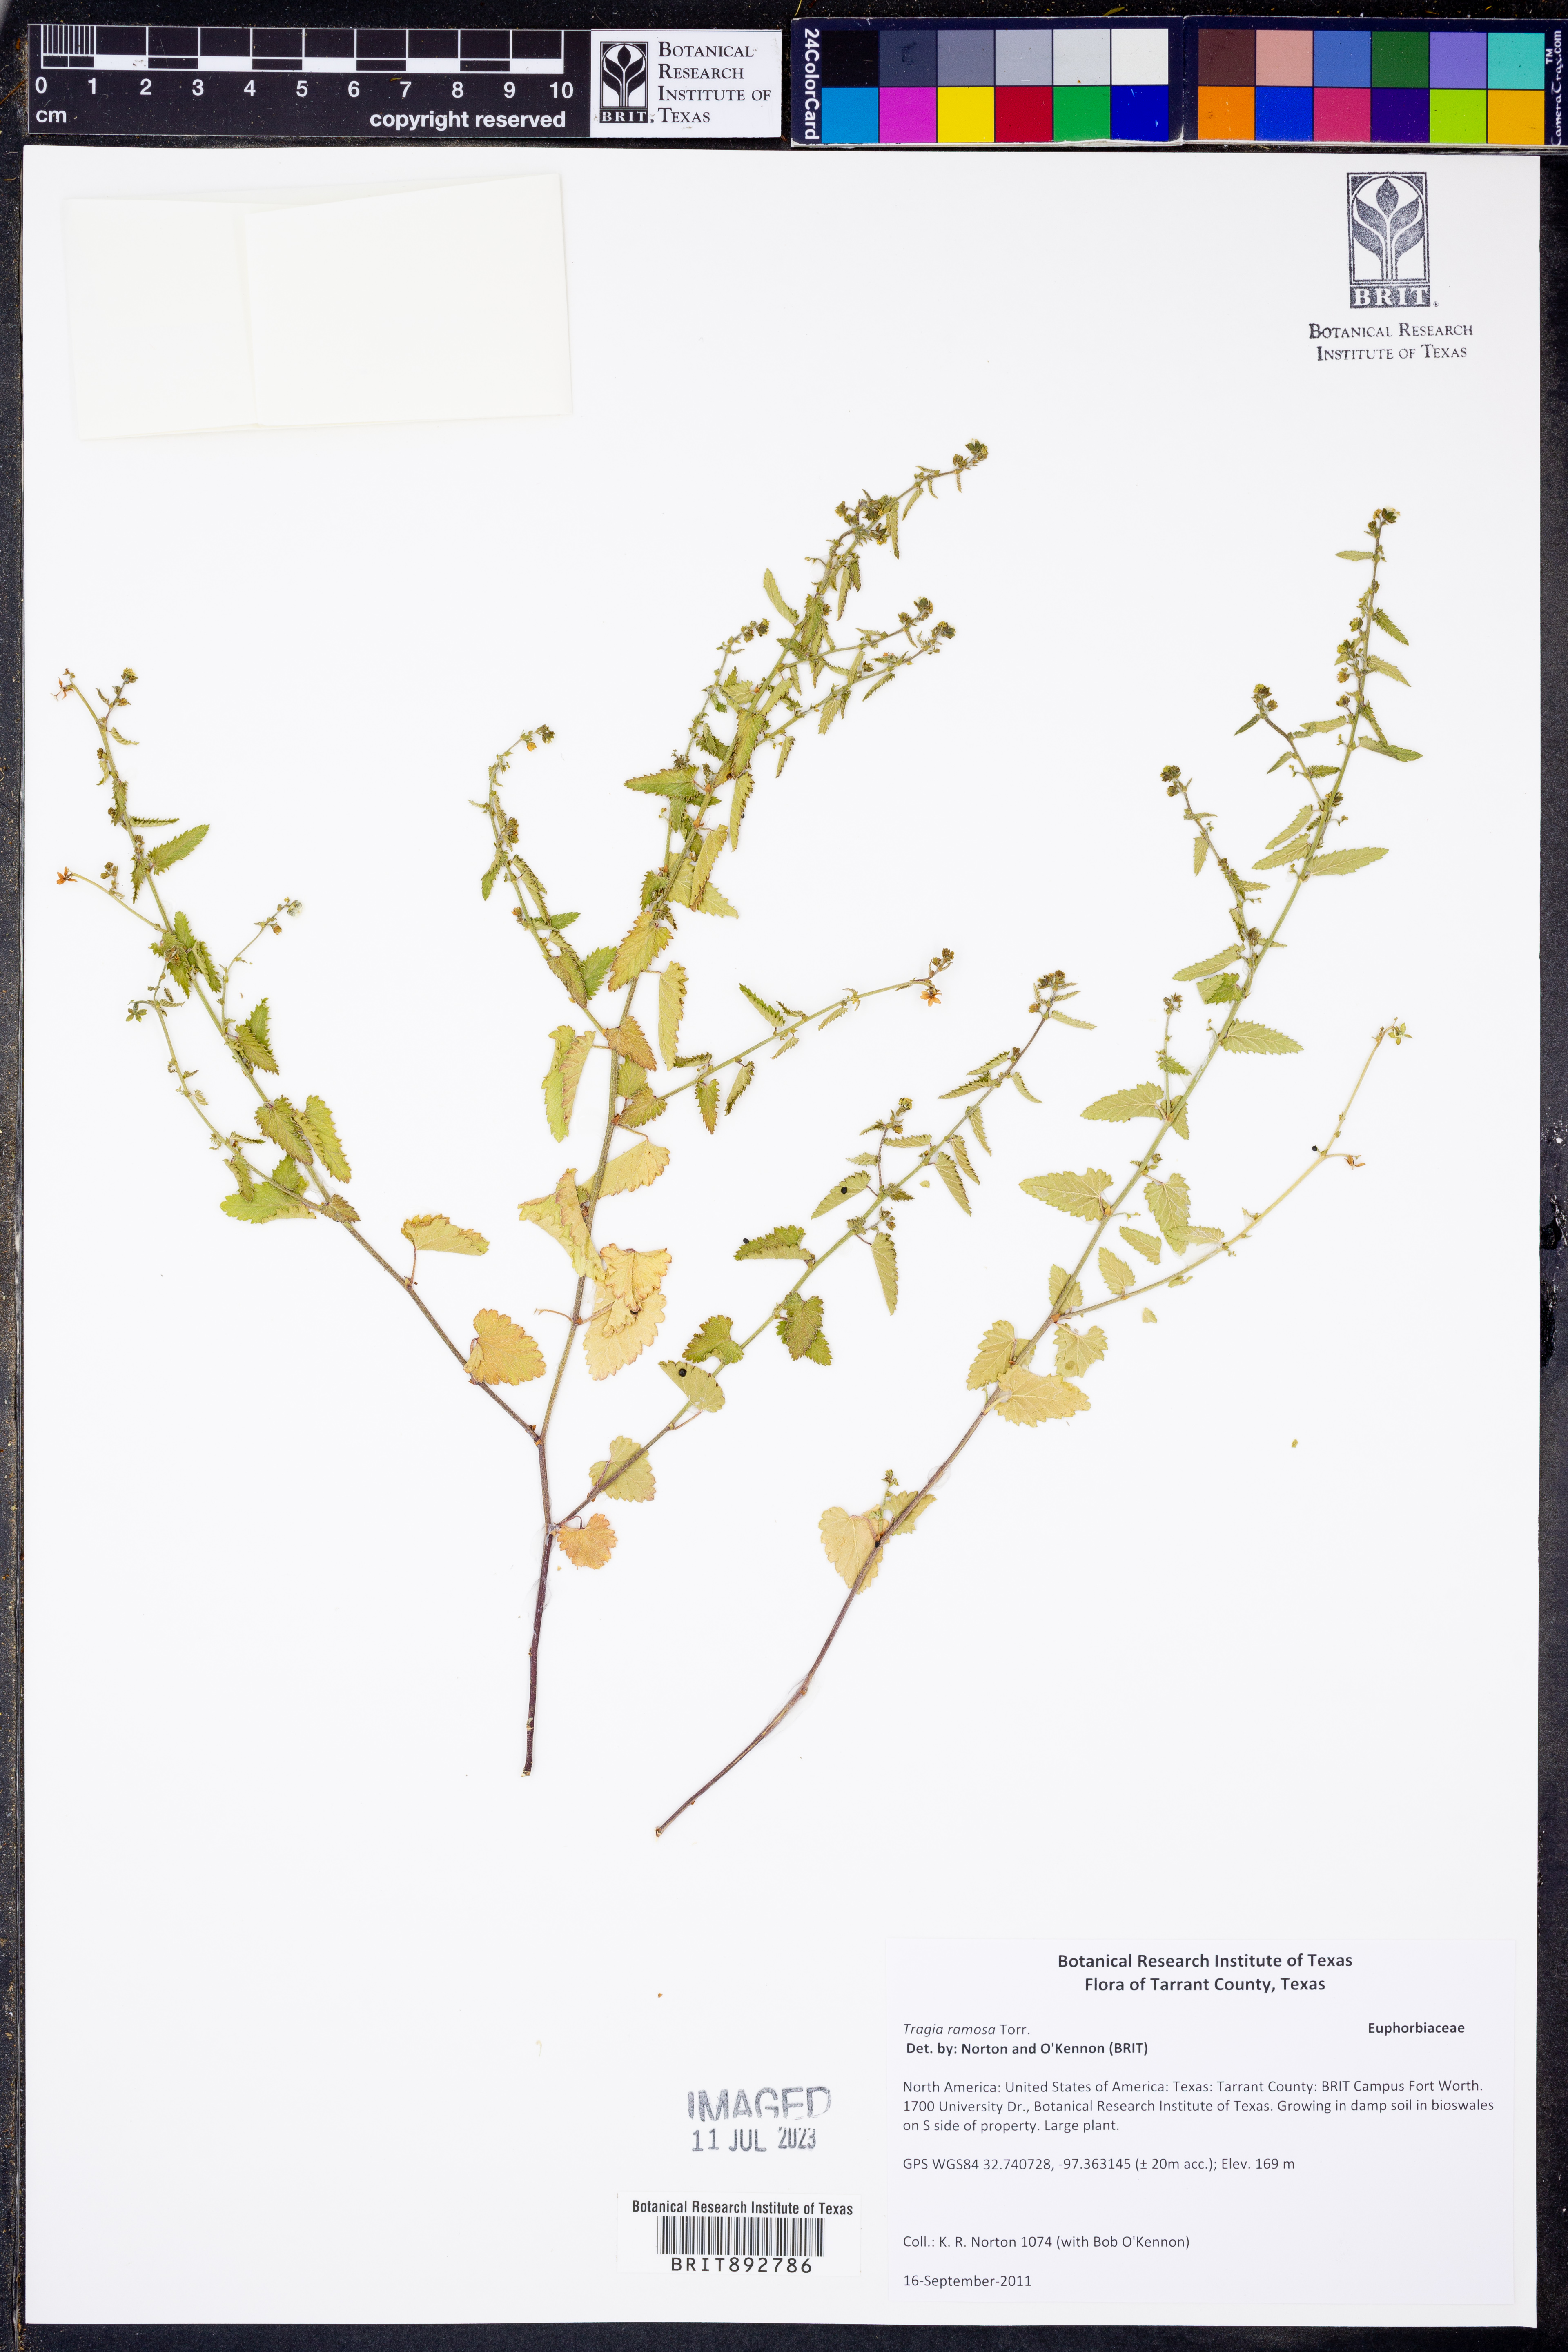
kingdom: Plantae
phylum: Tracheophyta
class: Magnoliopsida
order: Malpighiales
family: Euphorbiaceae
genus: Tragia
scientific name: Tragia ramosa
